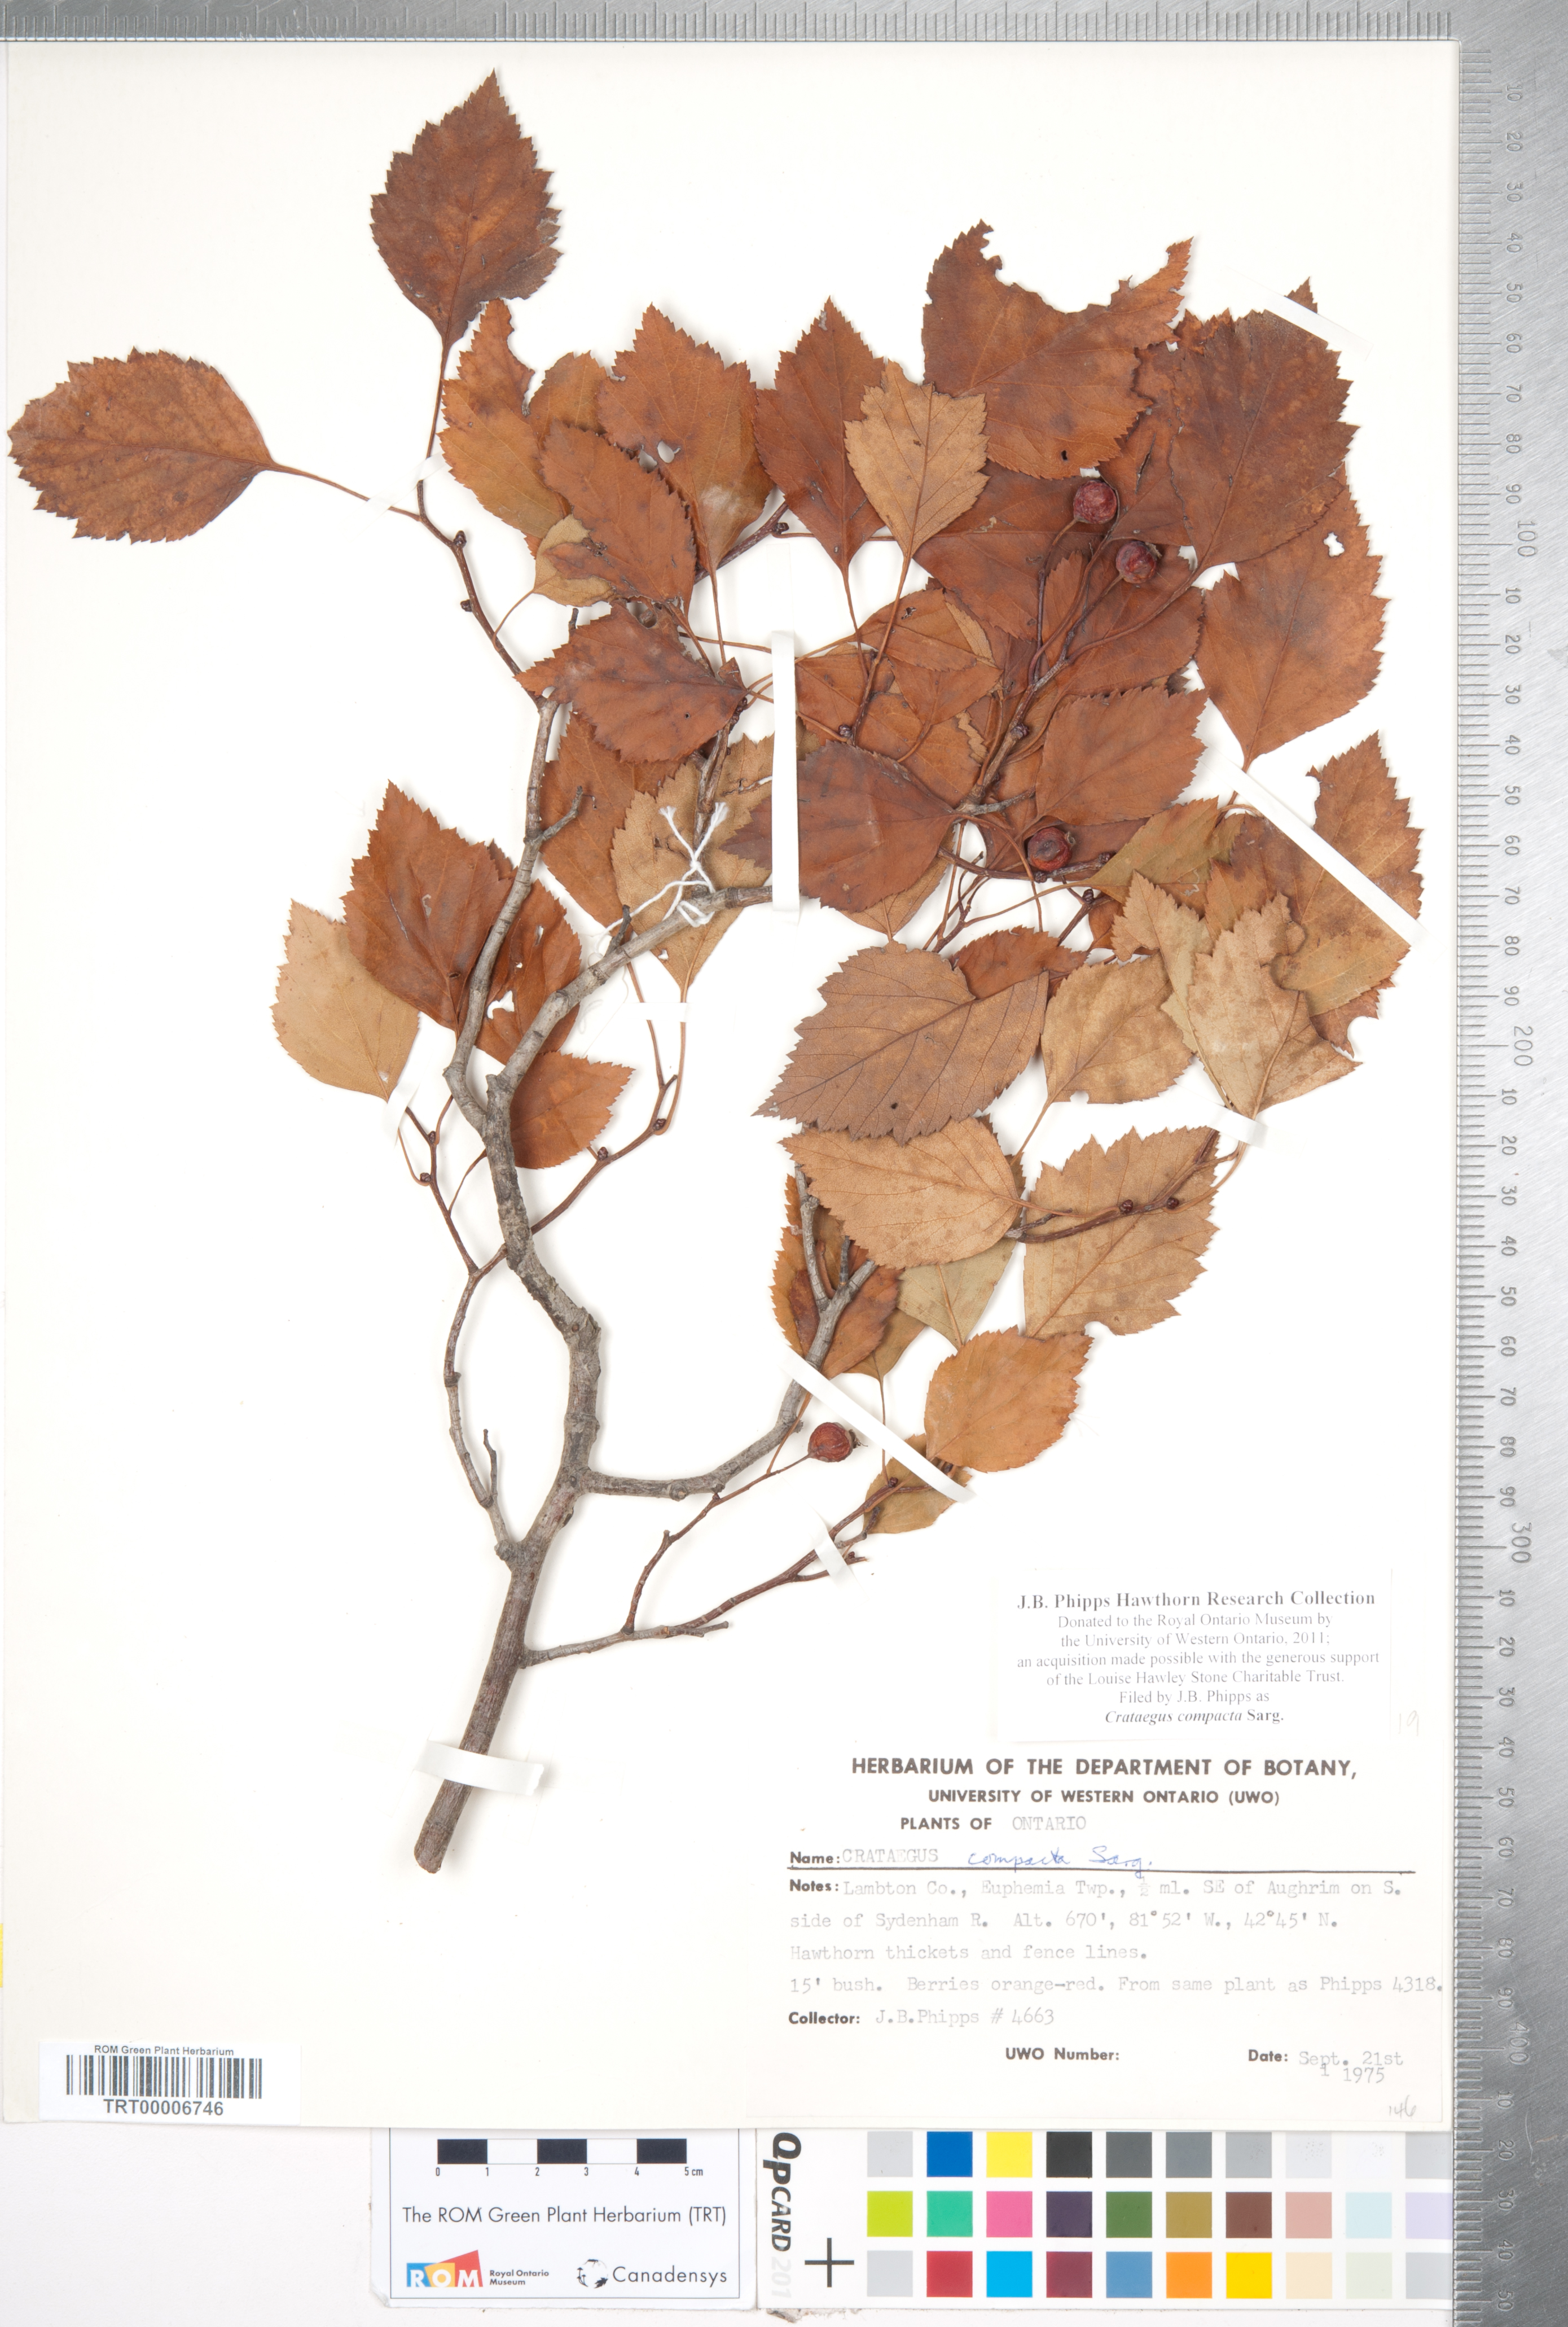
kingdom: Plantae
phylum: Tracheophyta
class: Magnoliopsida
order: Rosales
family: Rosaceae
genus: Crataegus
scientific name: Crataegus compacta
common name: Clustered hawthorn
